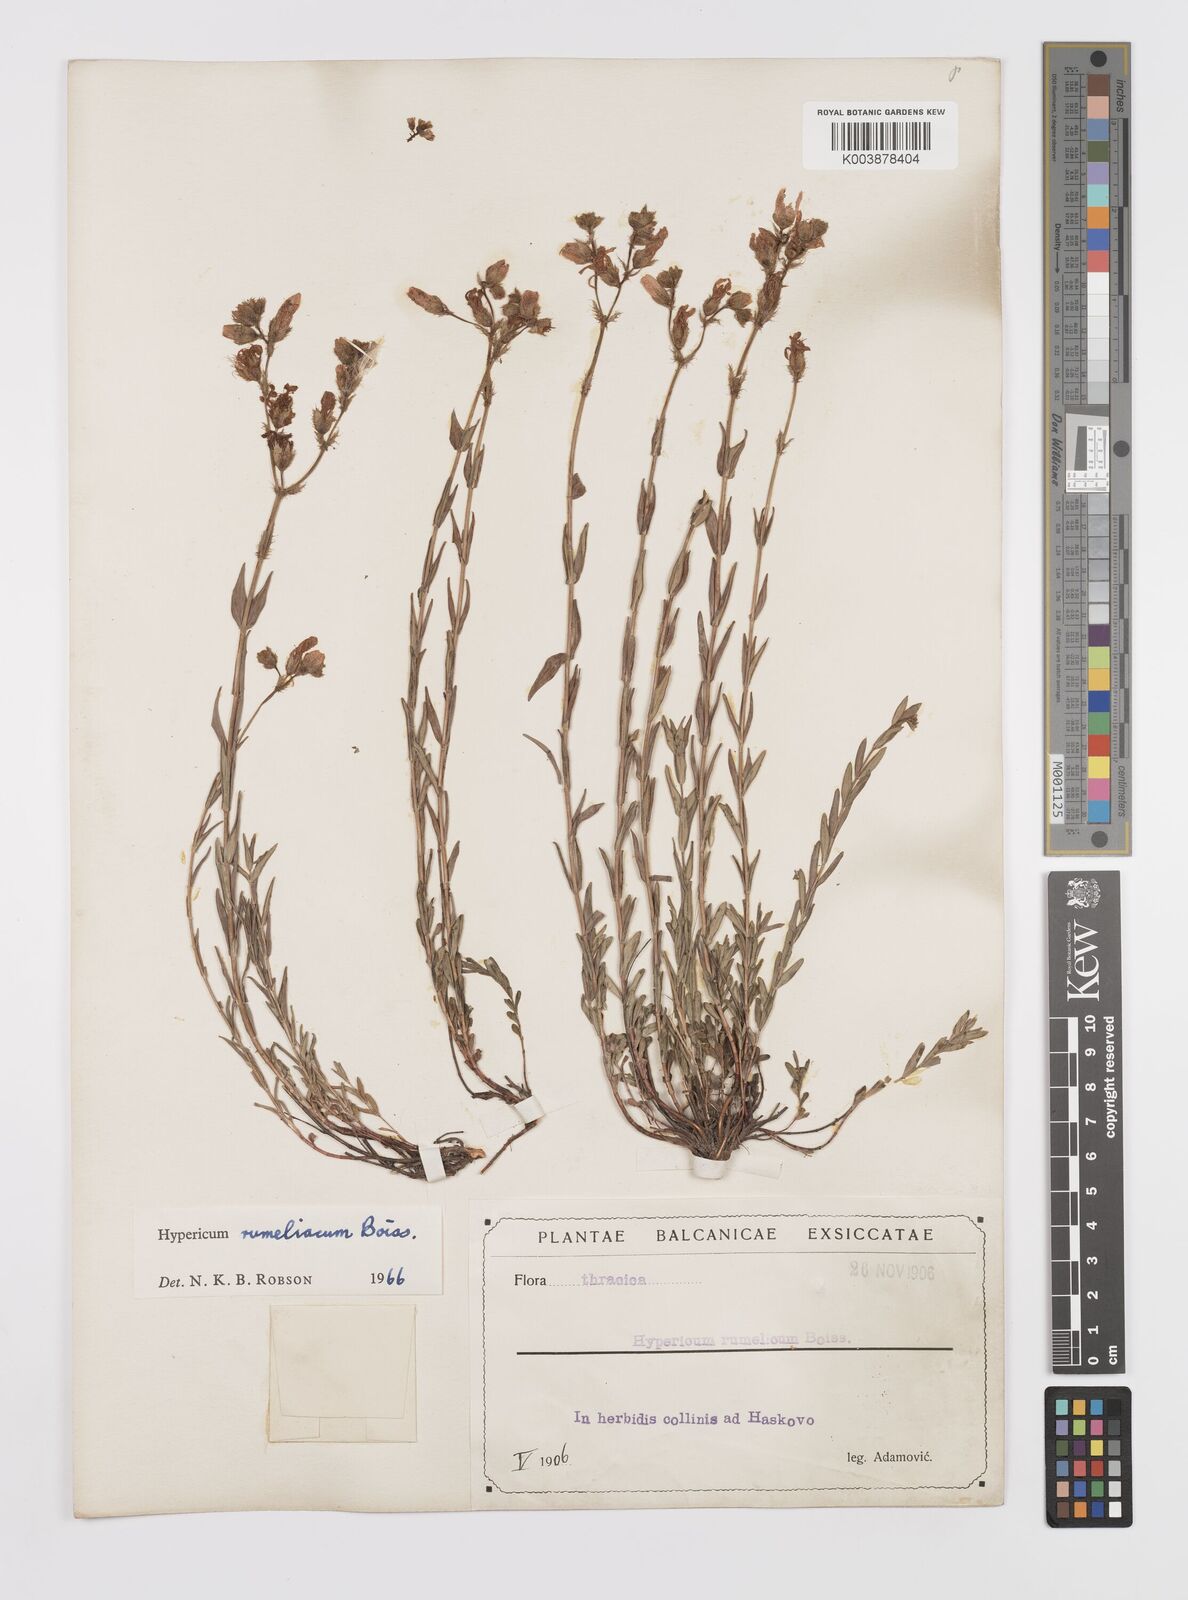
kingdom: Plantae
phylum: Tracheophyta
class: Magnoliopsida
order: Malpighiales
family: Hypericaceae
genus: Hypericum
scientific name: Hypericum rumeliacum
